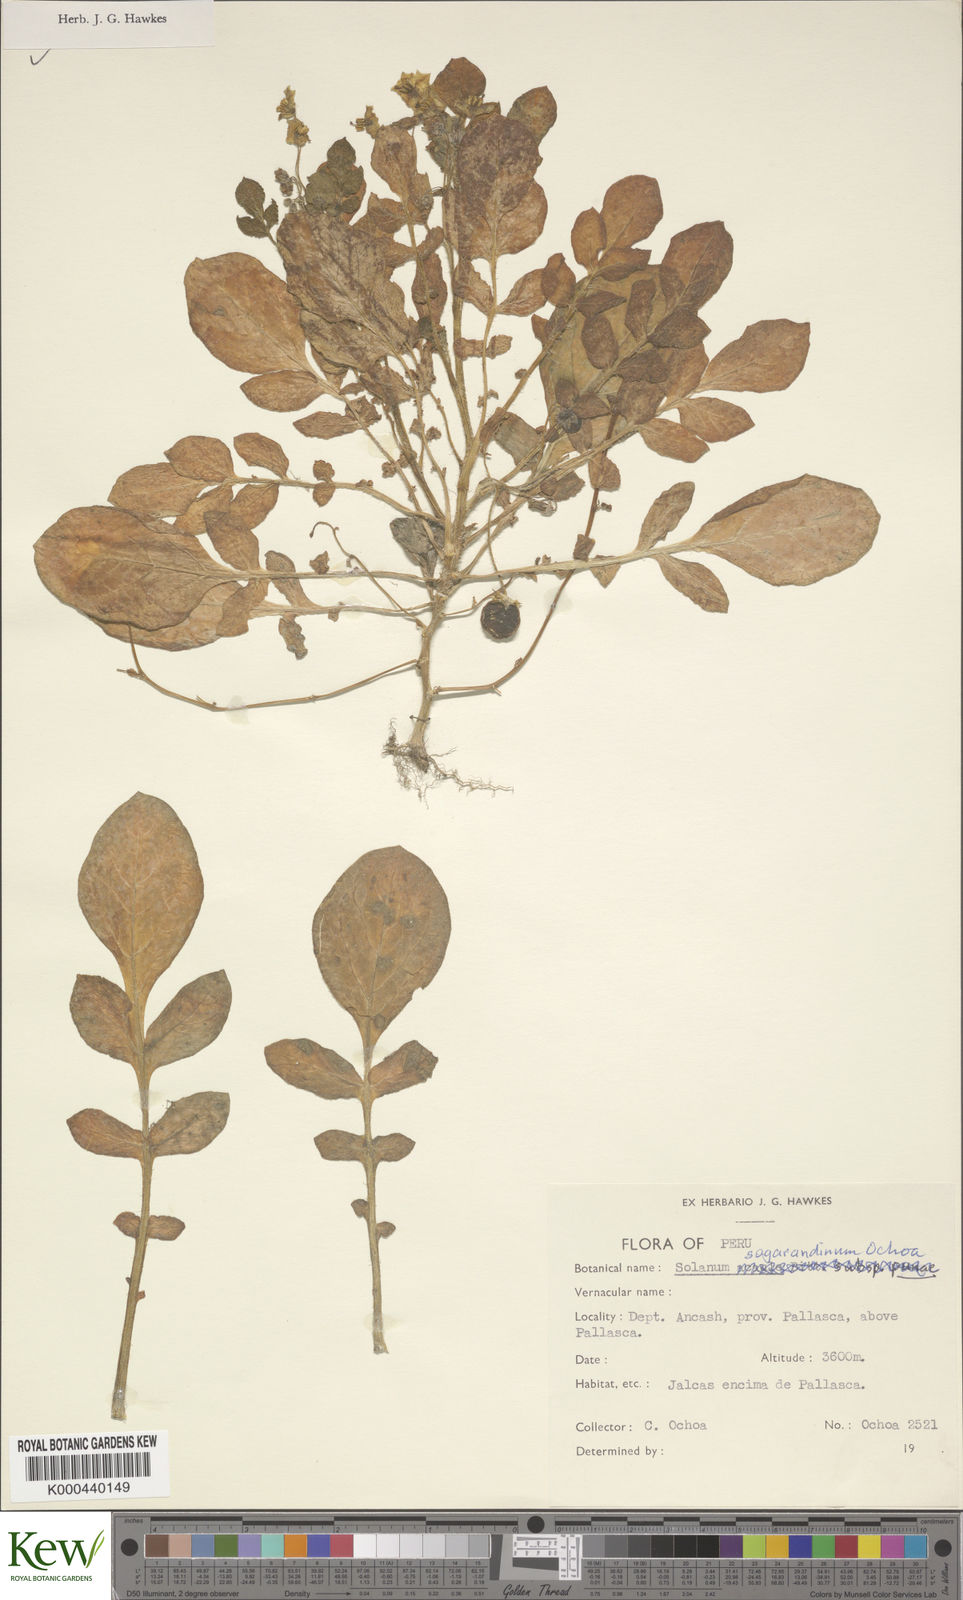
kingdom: Plantae
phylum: Tracheophyta
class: Magnoliopsida
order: Solanales
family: Solanaceae
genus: Solanum
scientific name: Solanum sogarandinum
